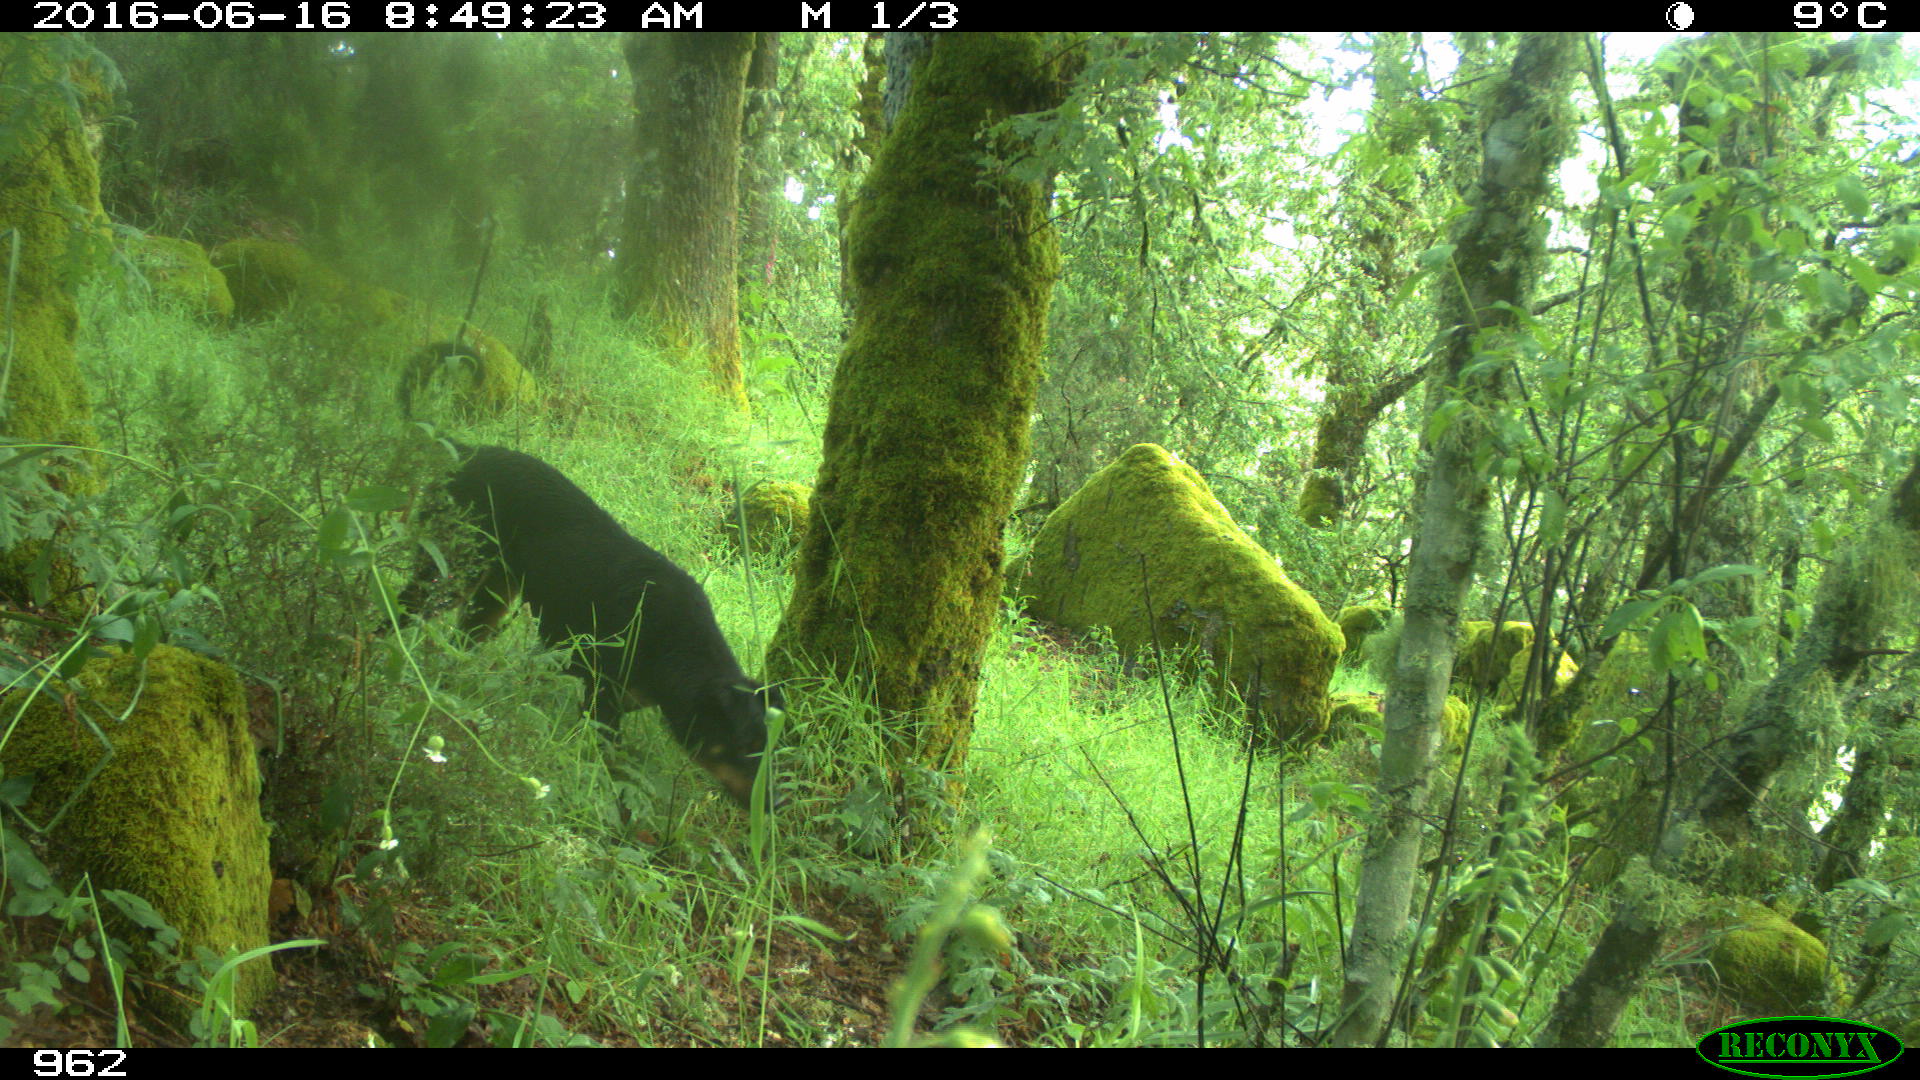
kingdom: Animalia
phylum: Chordata
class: Mammalia
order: Carnivora
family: Canidae
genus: Canis
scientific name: Canis lupus
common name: Gray wolf
